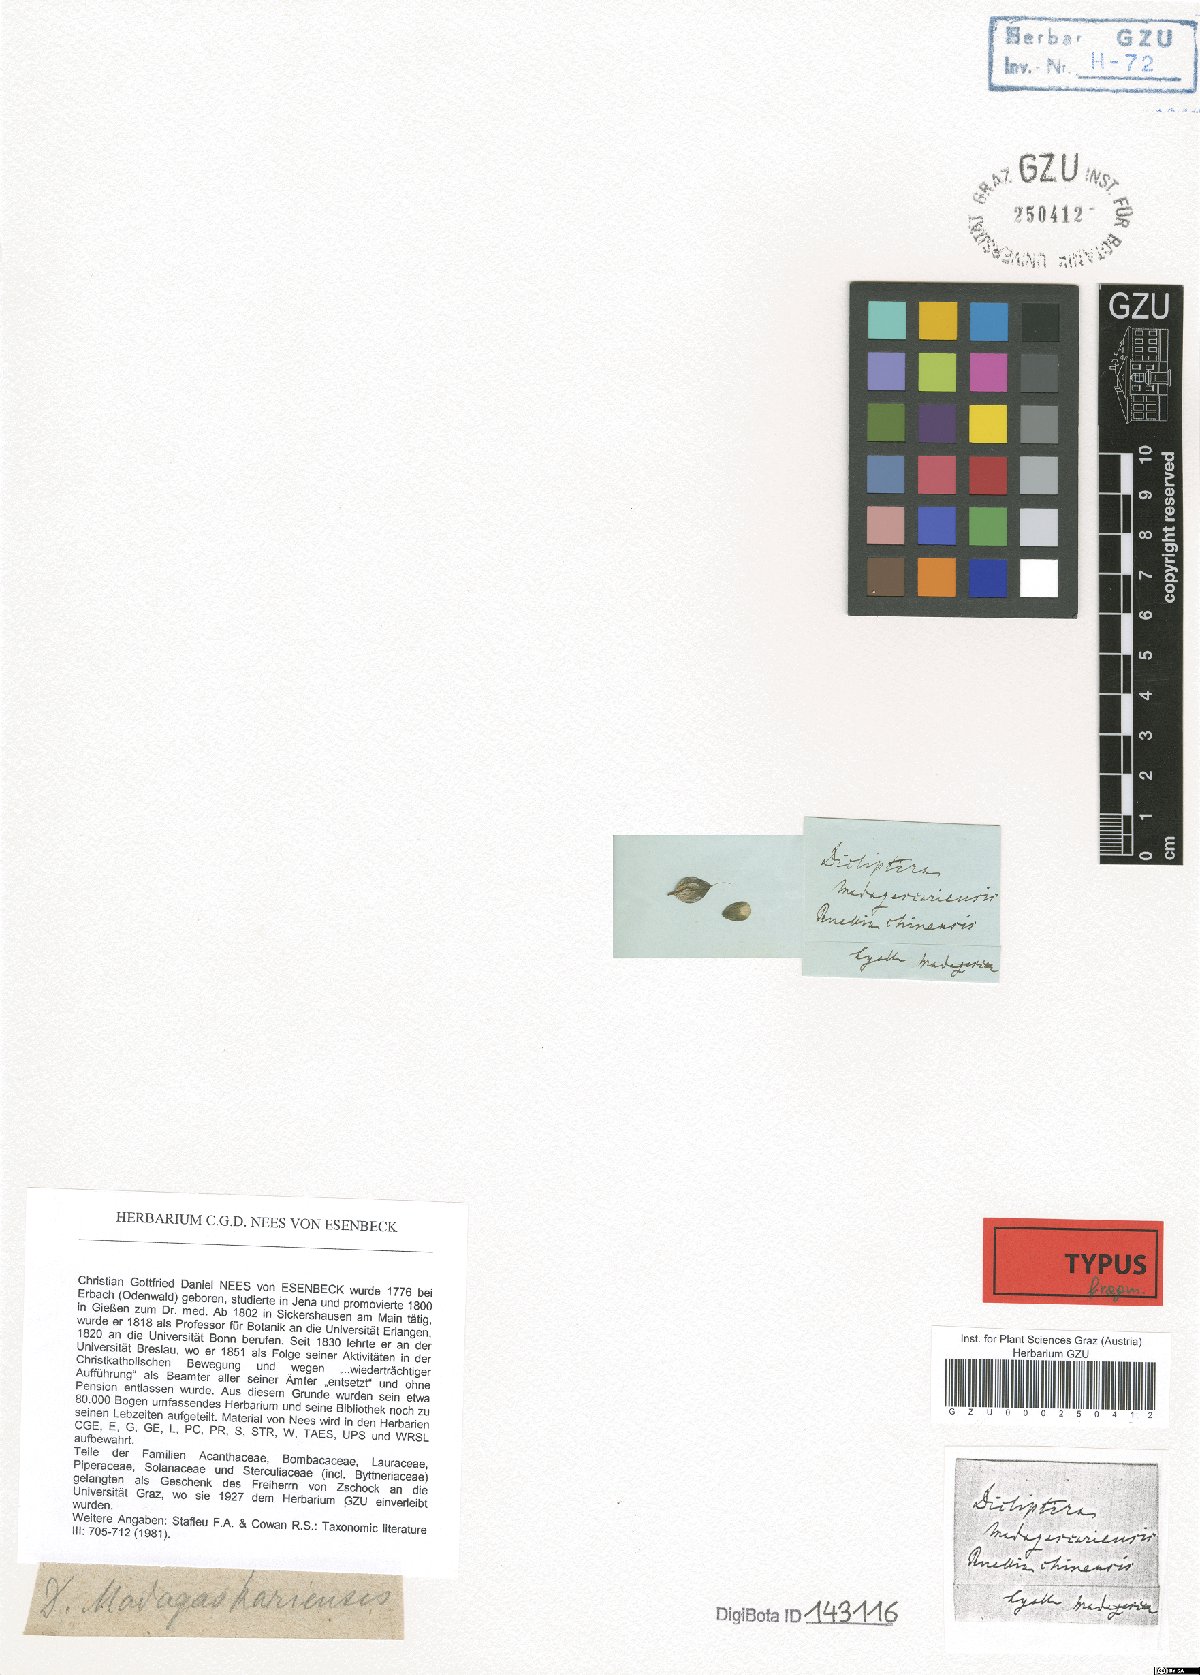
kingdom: Plantae
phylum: Tracheophyta
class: Magnoliopsida
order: Lamiales
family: Acanthaceae
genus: Dicliptera
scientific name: Dicliptera madagascariensis
